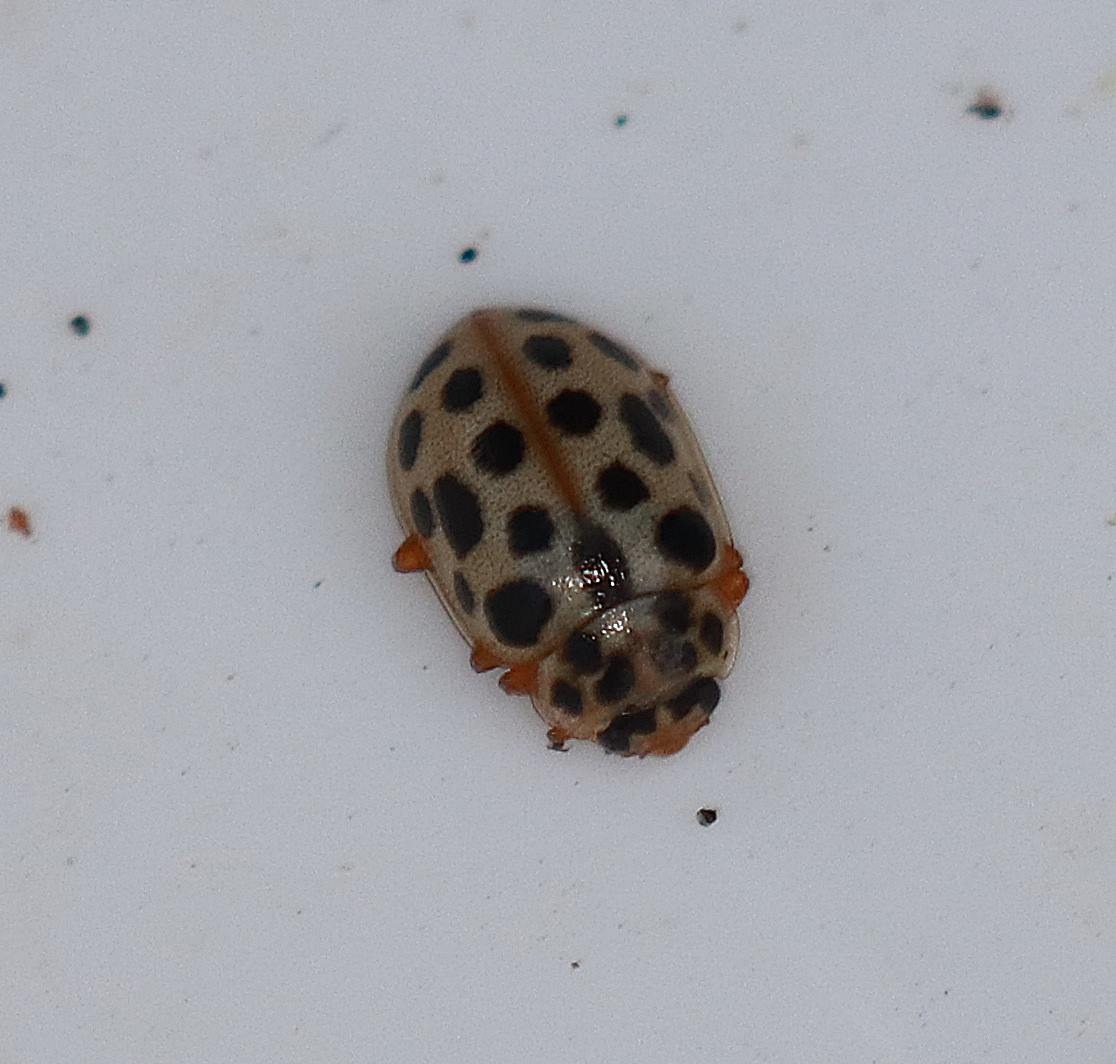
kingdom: Animalia
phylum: Arthropoda
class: Insecta
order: Coleoptera
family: Coccinellidae
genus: Anisosticta
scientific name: Anisosticta novemdecimpunctata
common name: Nittenplettet mariehøne
